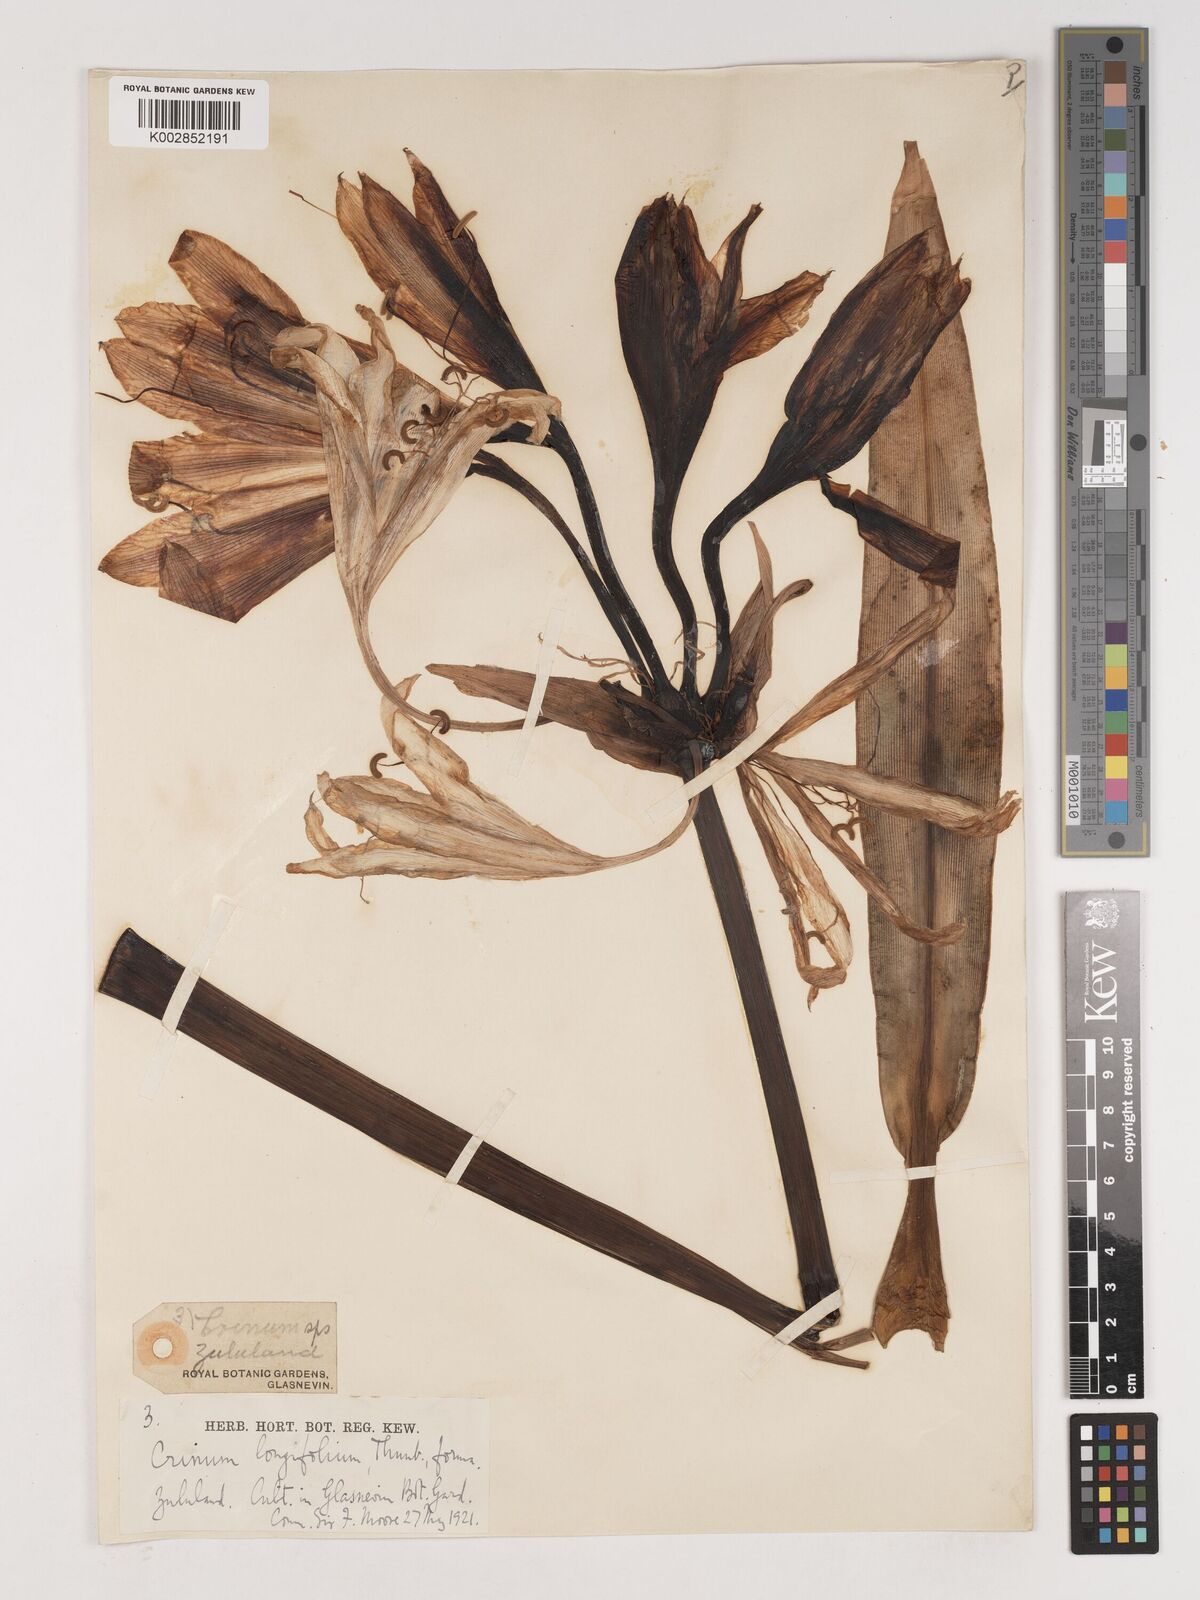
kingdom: Plantae
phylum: Tracheophyta
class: Liliopsida
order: Asparagales
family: Amaryllidaceae
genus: Crinum
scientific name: Crinum ornatum
